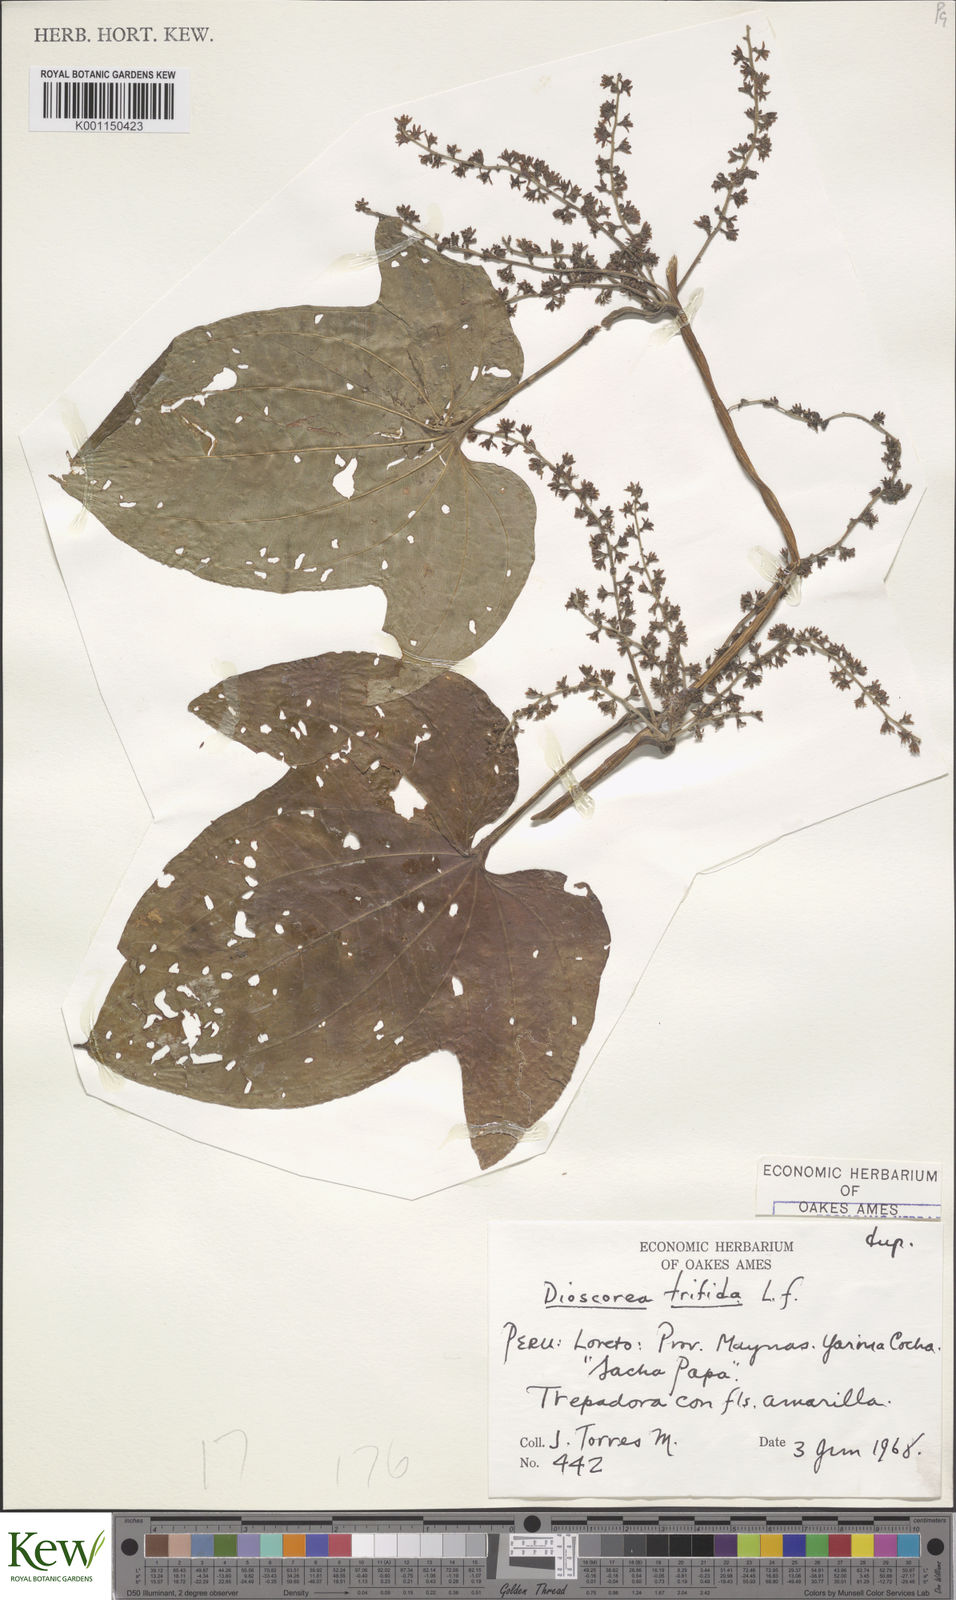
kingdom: Plantae
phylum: Tracheophyta
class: Liliopsida
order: Dioscoreales
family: Dioscoreaceae
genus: Dioscorea
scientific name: Dioscorea trifida
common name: Cush-cush
